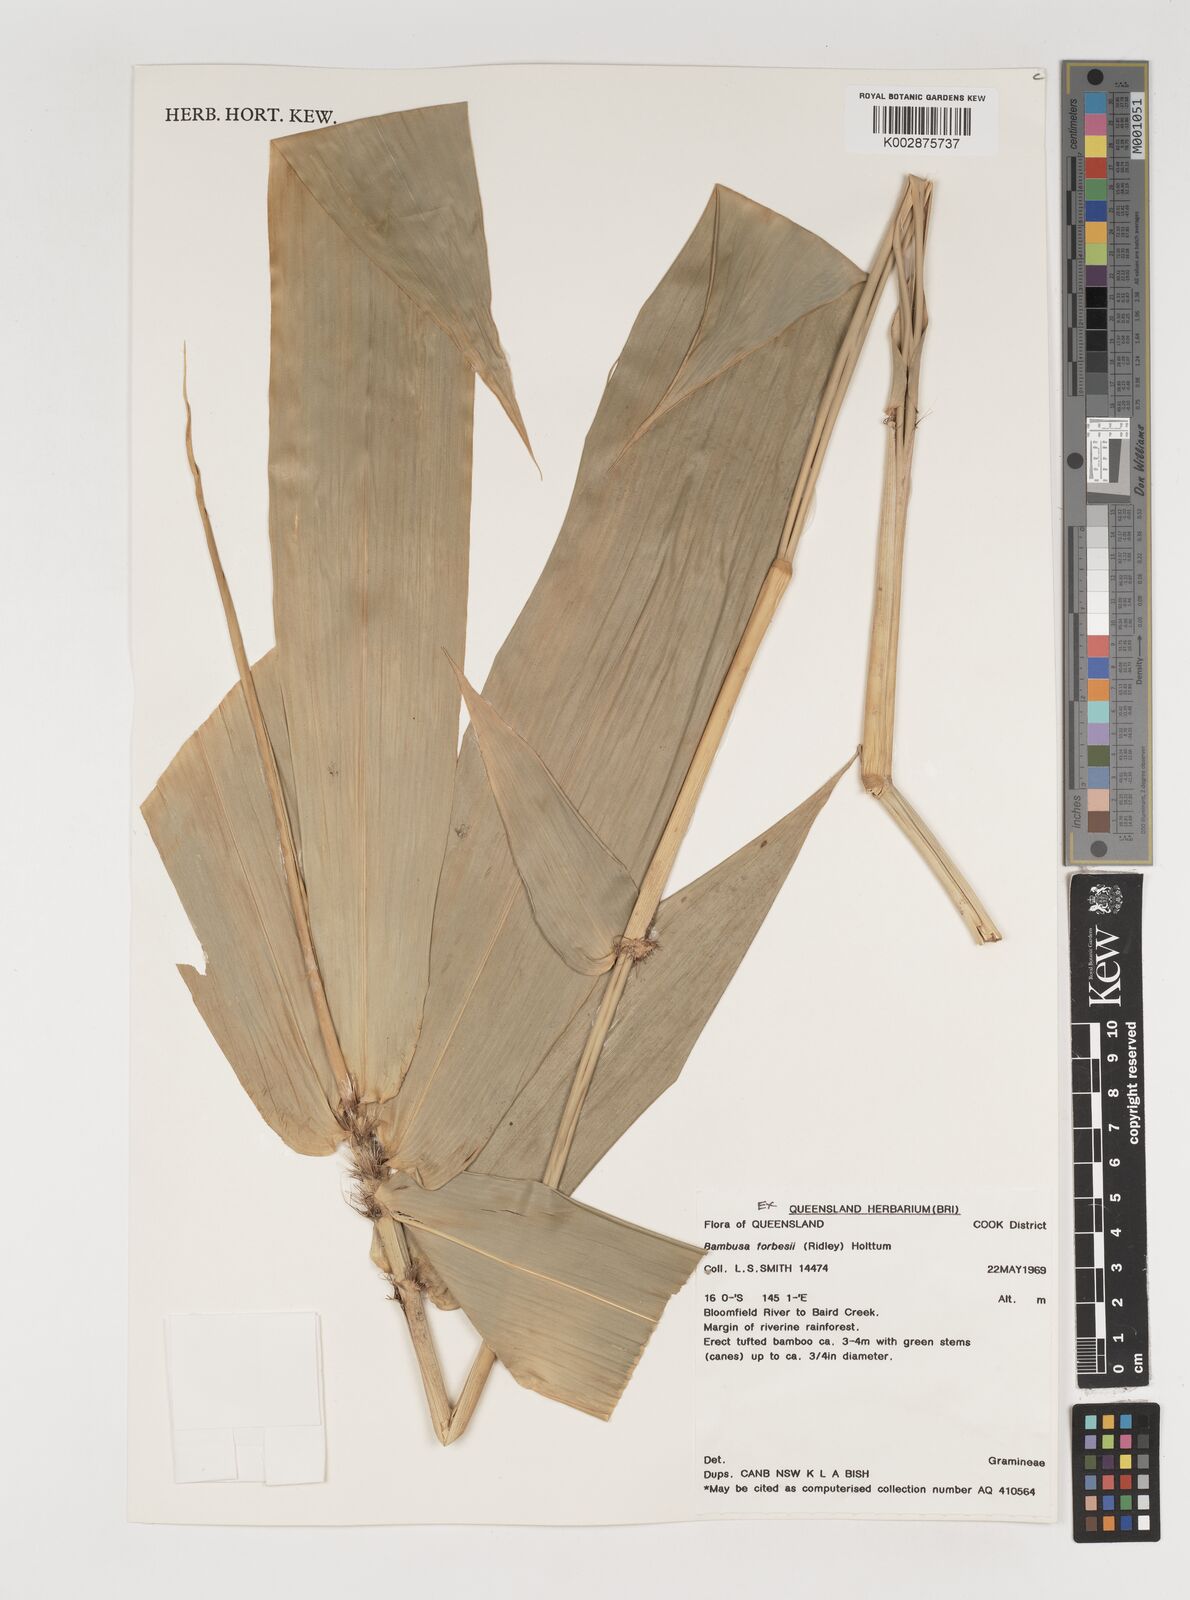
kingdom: Plantae
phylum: Tracheophyta
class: Liliopsida
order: Poales
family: Poaceae
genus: Neololeba
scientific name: Neololeba atra
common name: Cape bamboo
